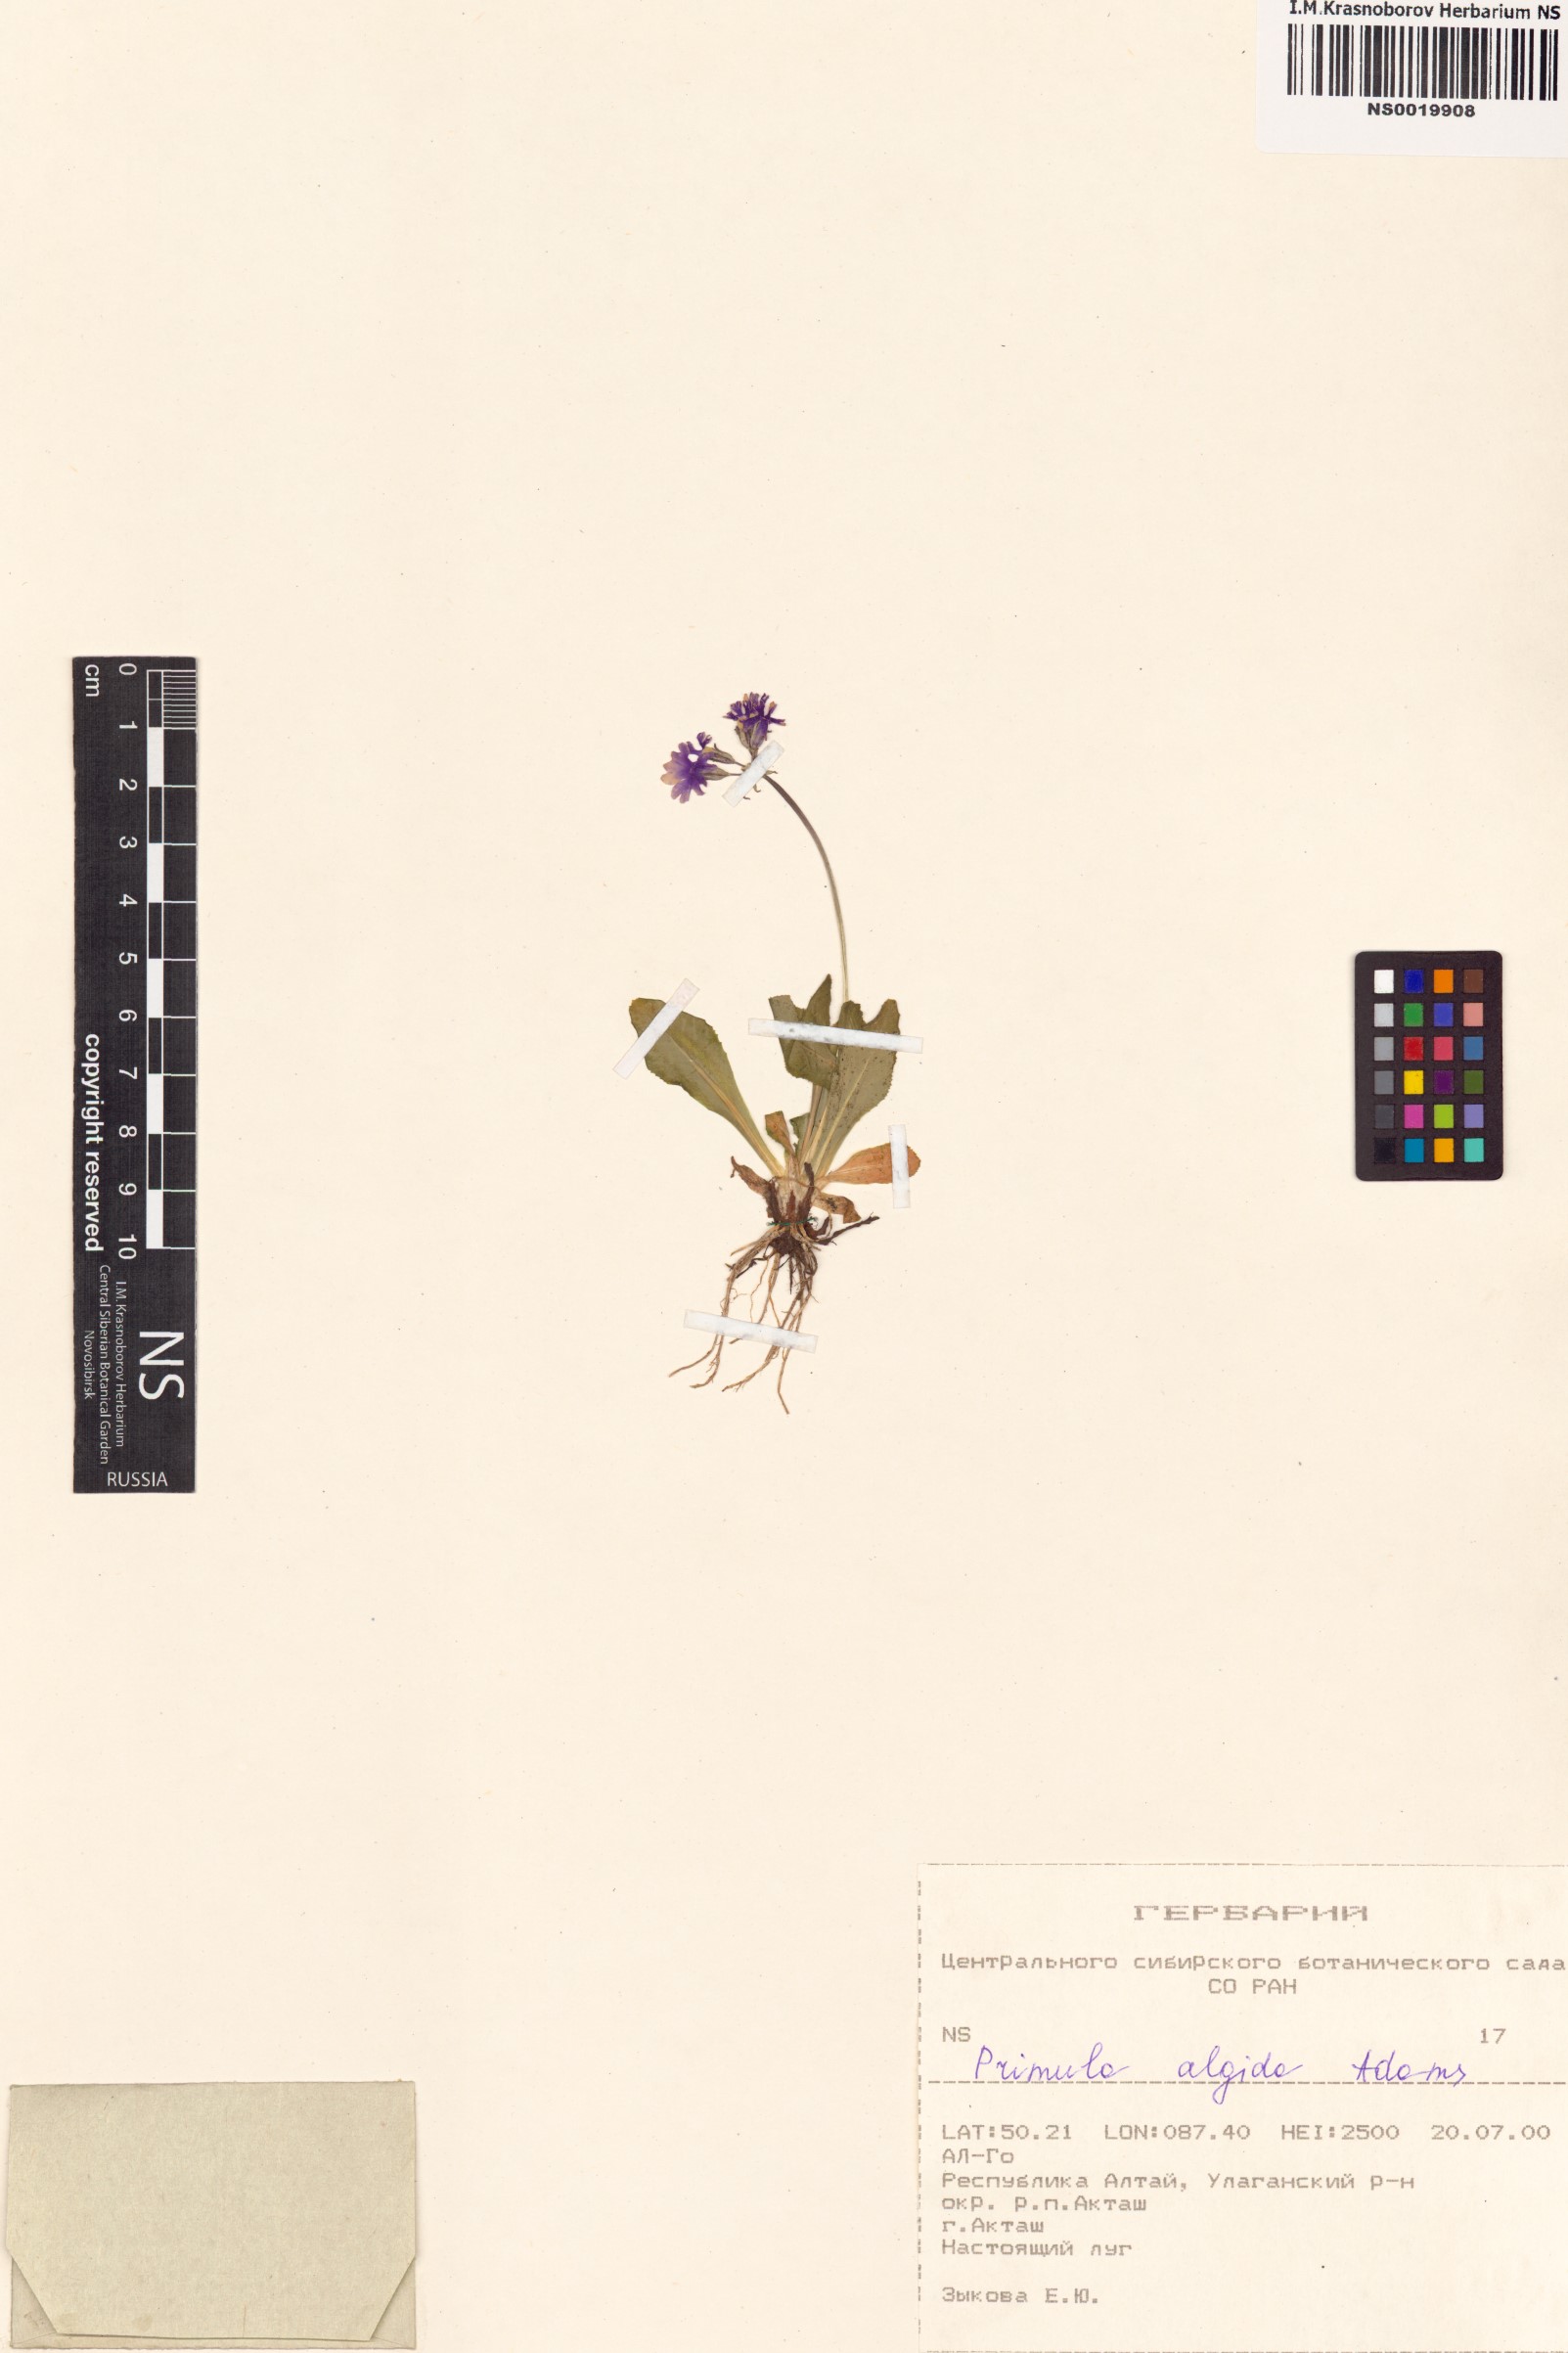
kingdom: Plantae
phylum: Tracheophyta
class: Magnoliopsida
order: Ericales
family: Primulaceae
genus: Primula
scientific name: Primula algida
